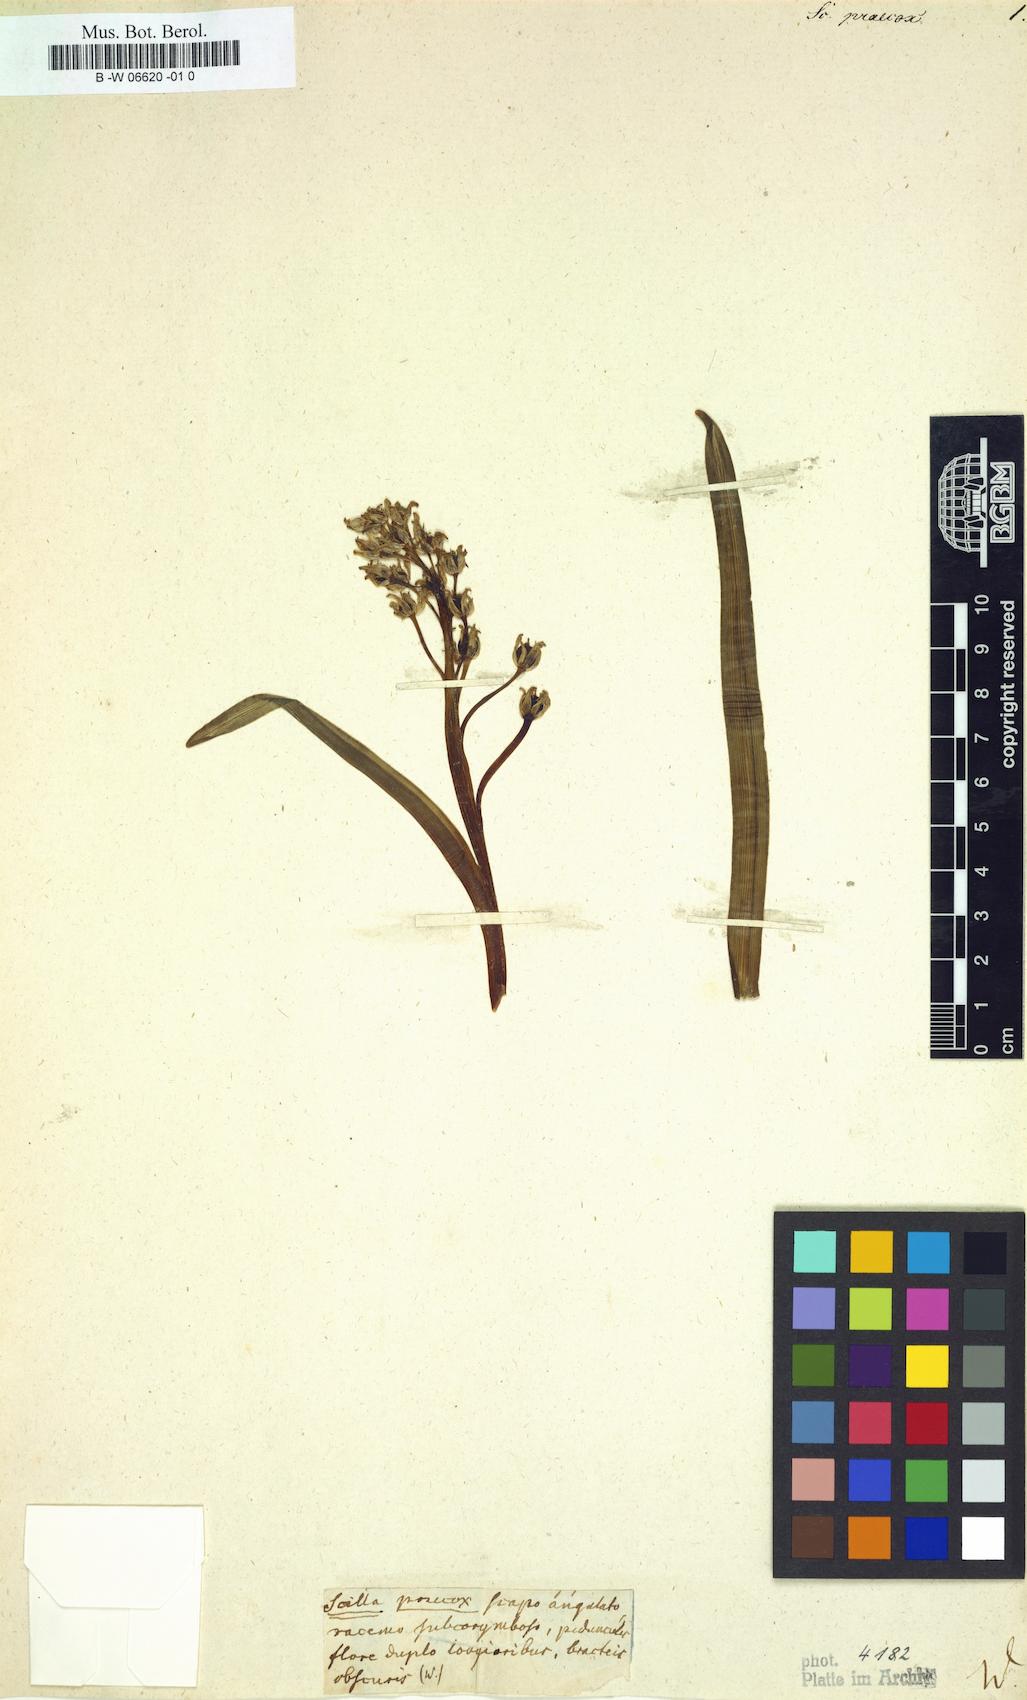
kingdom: Plantae
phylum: Tracheophyta
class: Liliopsida
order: Asparagales
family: Asparagaceae
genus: Scilla
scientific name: Scilla
